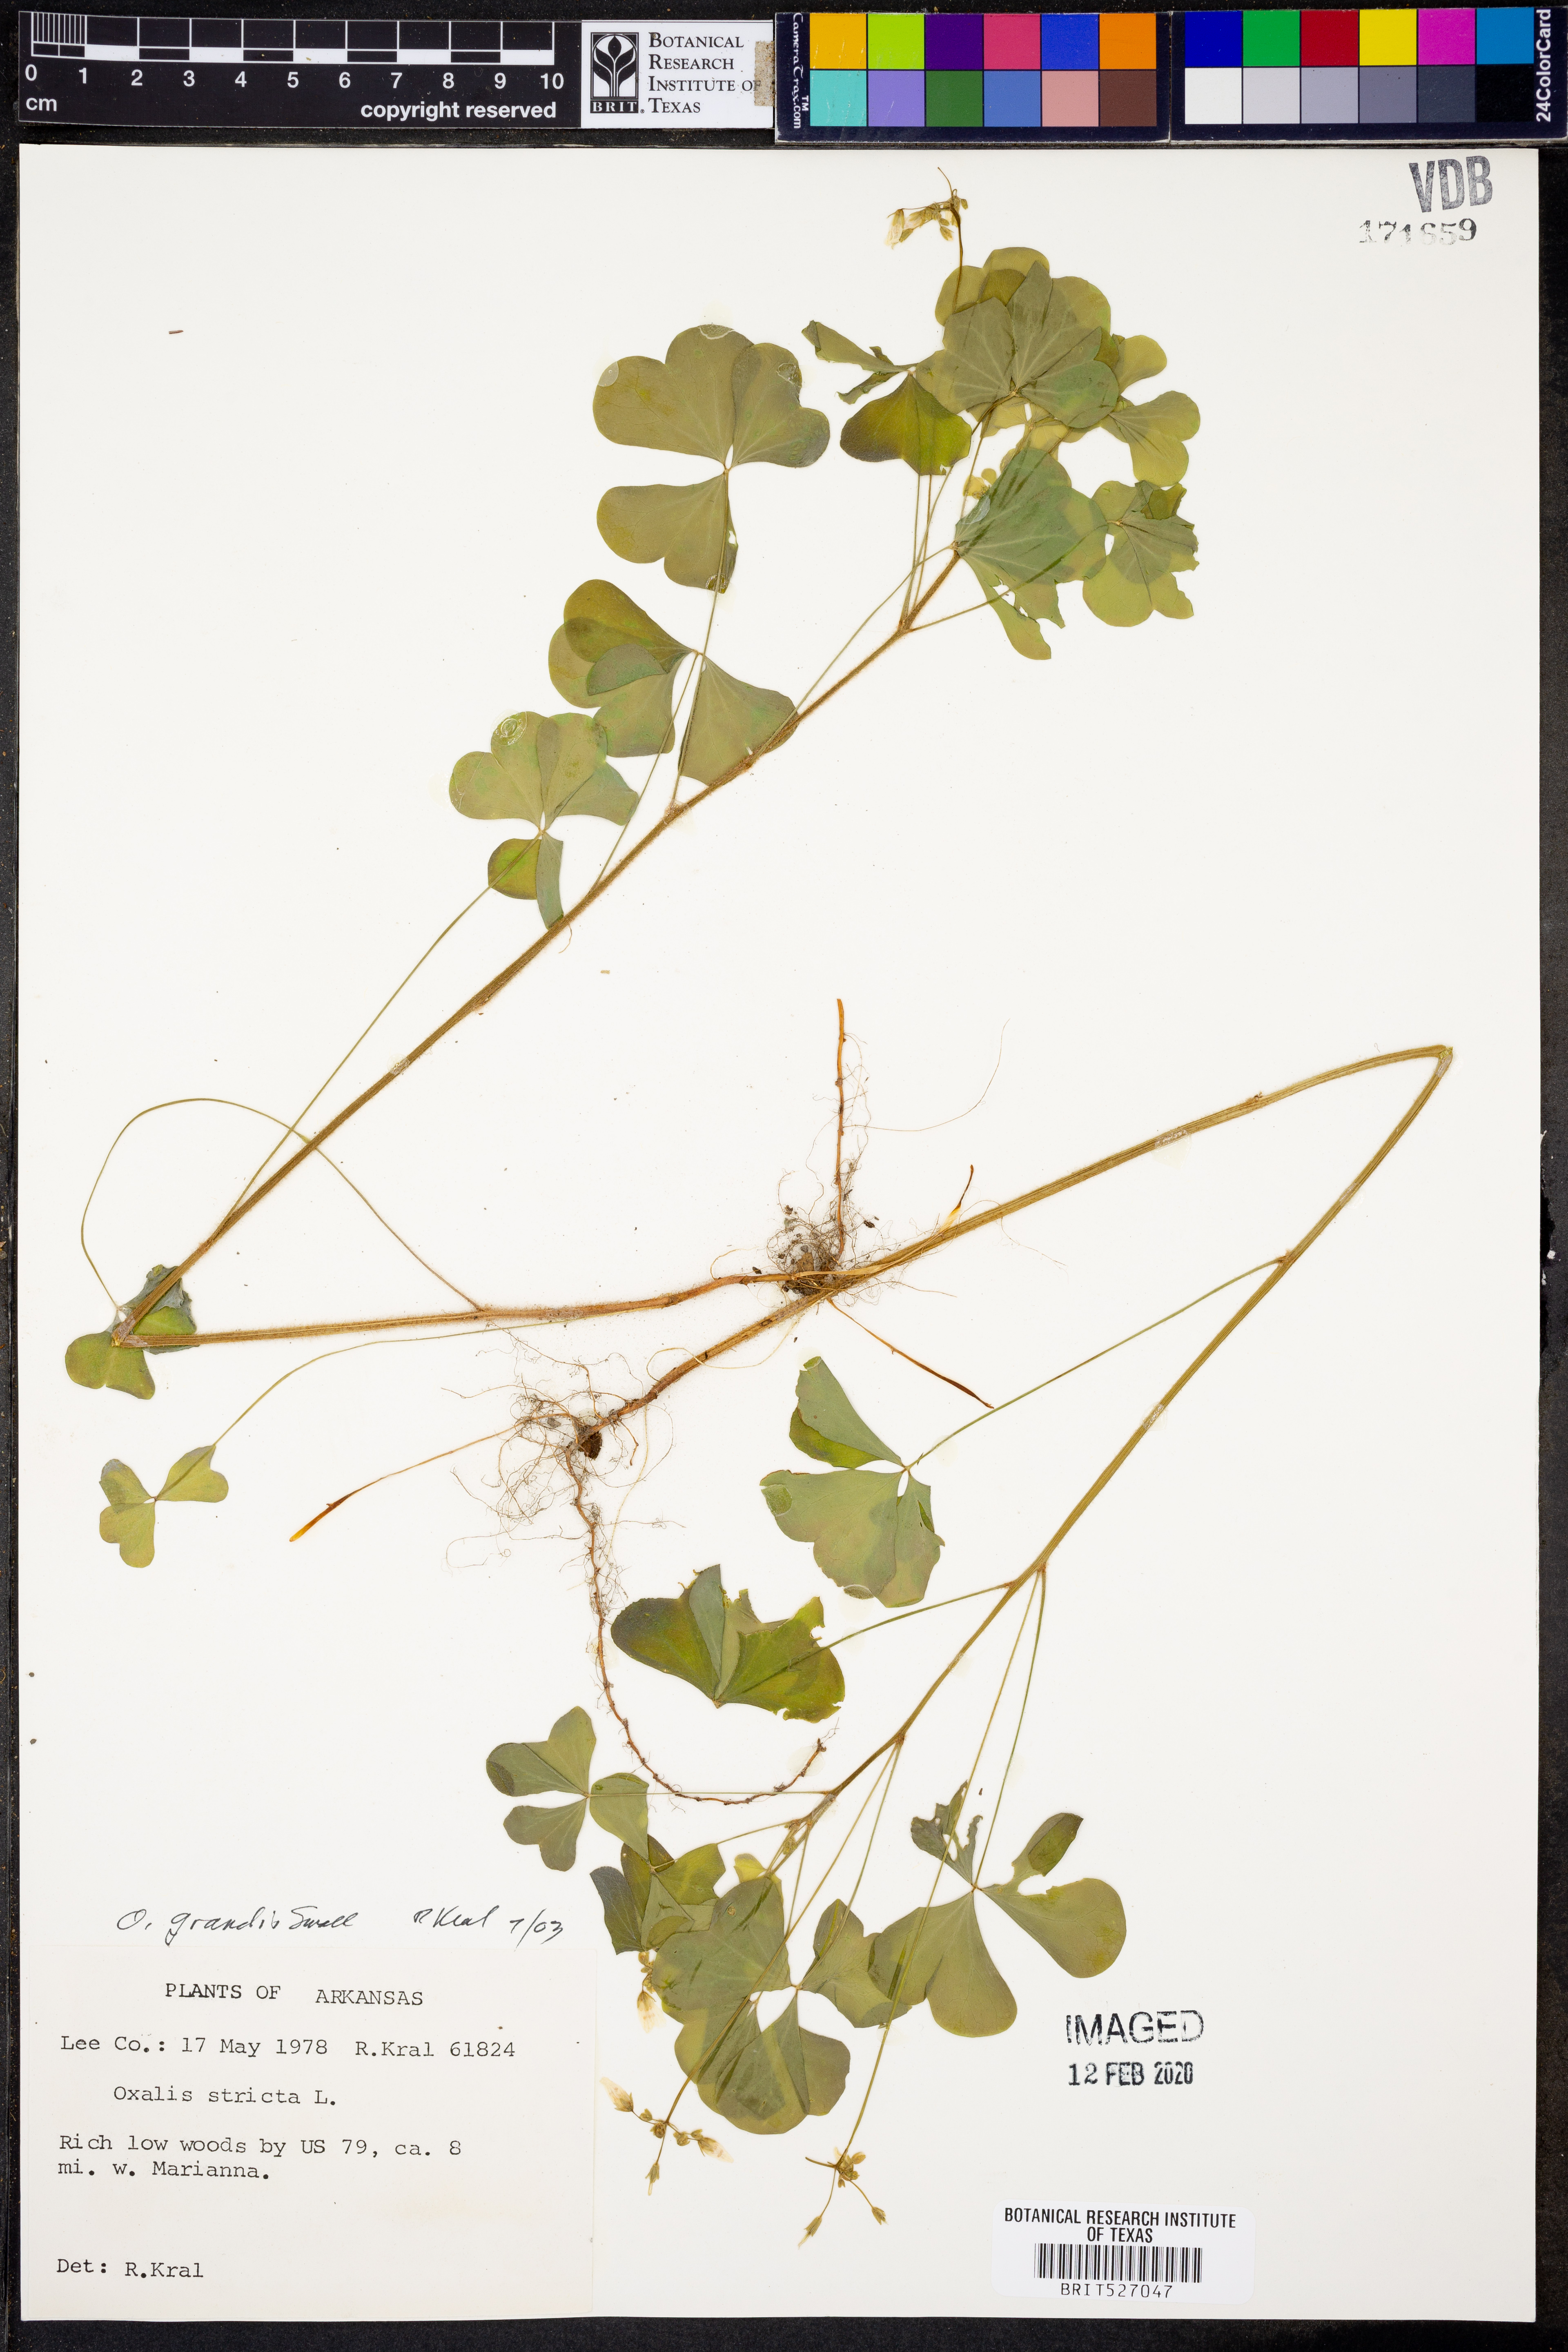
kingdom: Plantae
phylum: Tracheophyta
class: Magnoliopsida
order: Oxalidales
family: Oxalidaceae
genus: Oxalis
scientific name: Oxalis grandis
